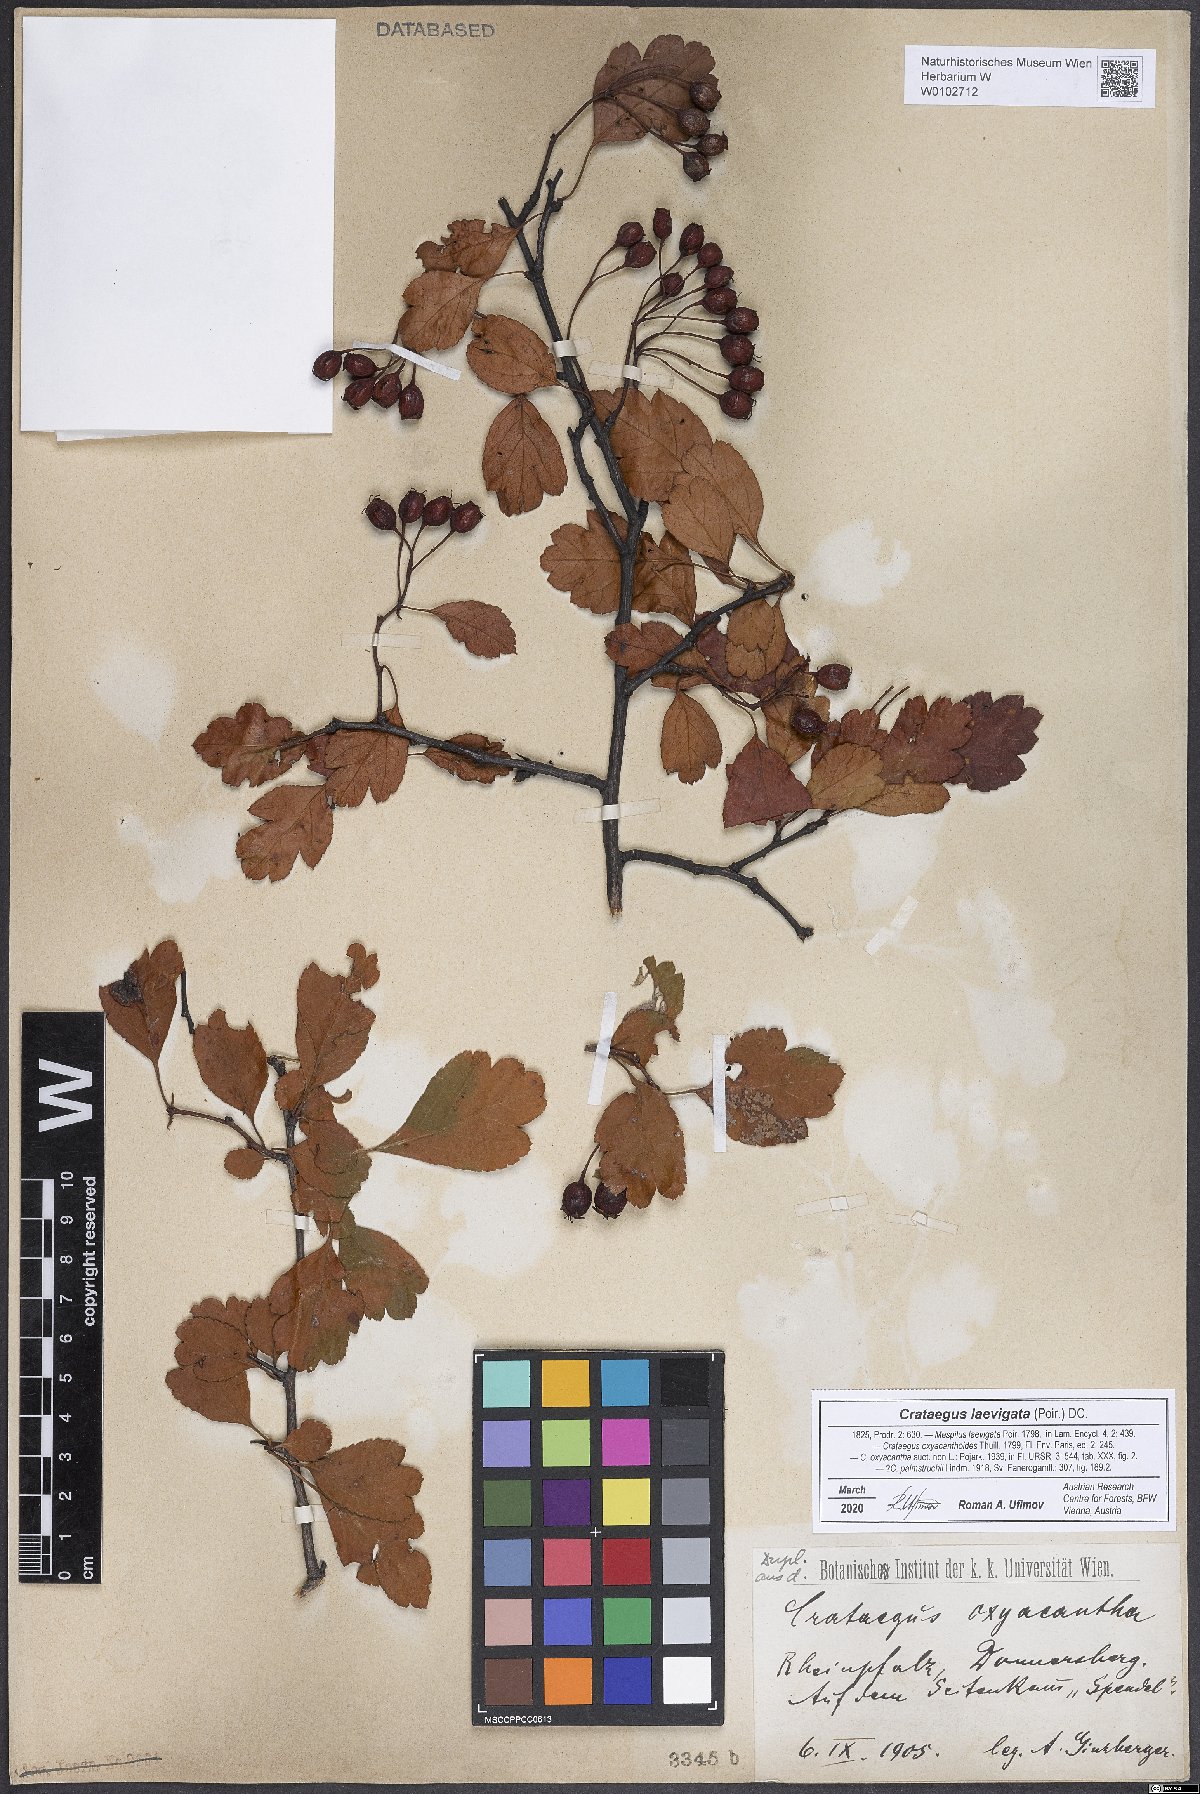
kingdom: Plantae
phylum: Tracheophyta
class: Magnoliopsida
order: Rosales
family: Rosaceae
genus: Crataegus
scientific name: Crataegus laevigata
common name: Midland hawthorn
